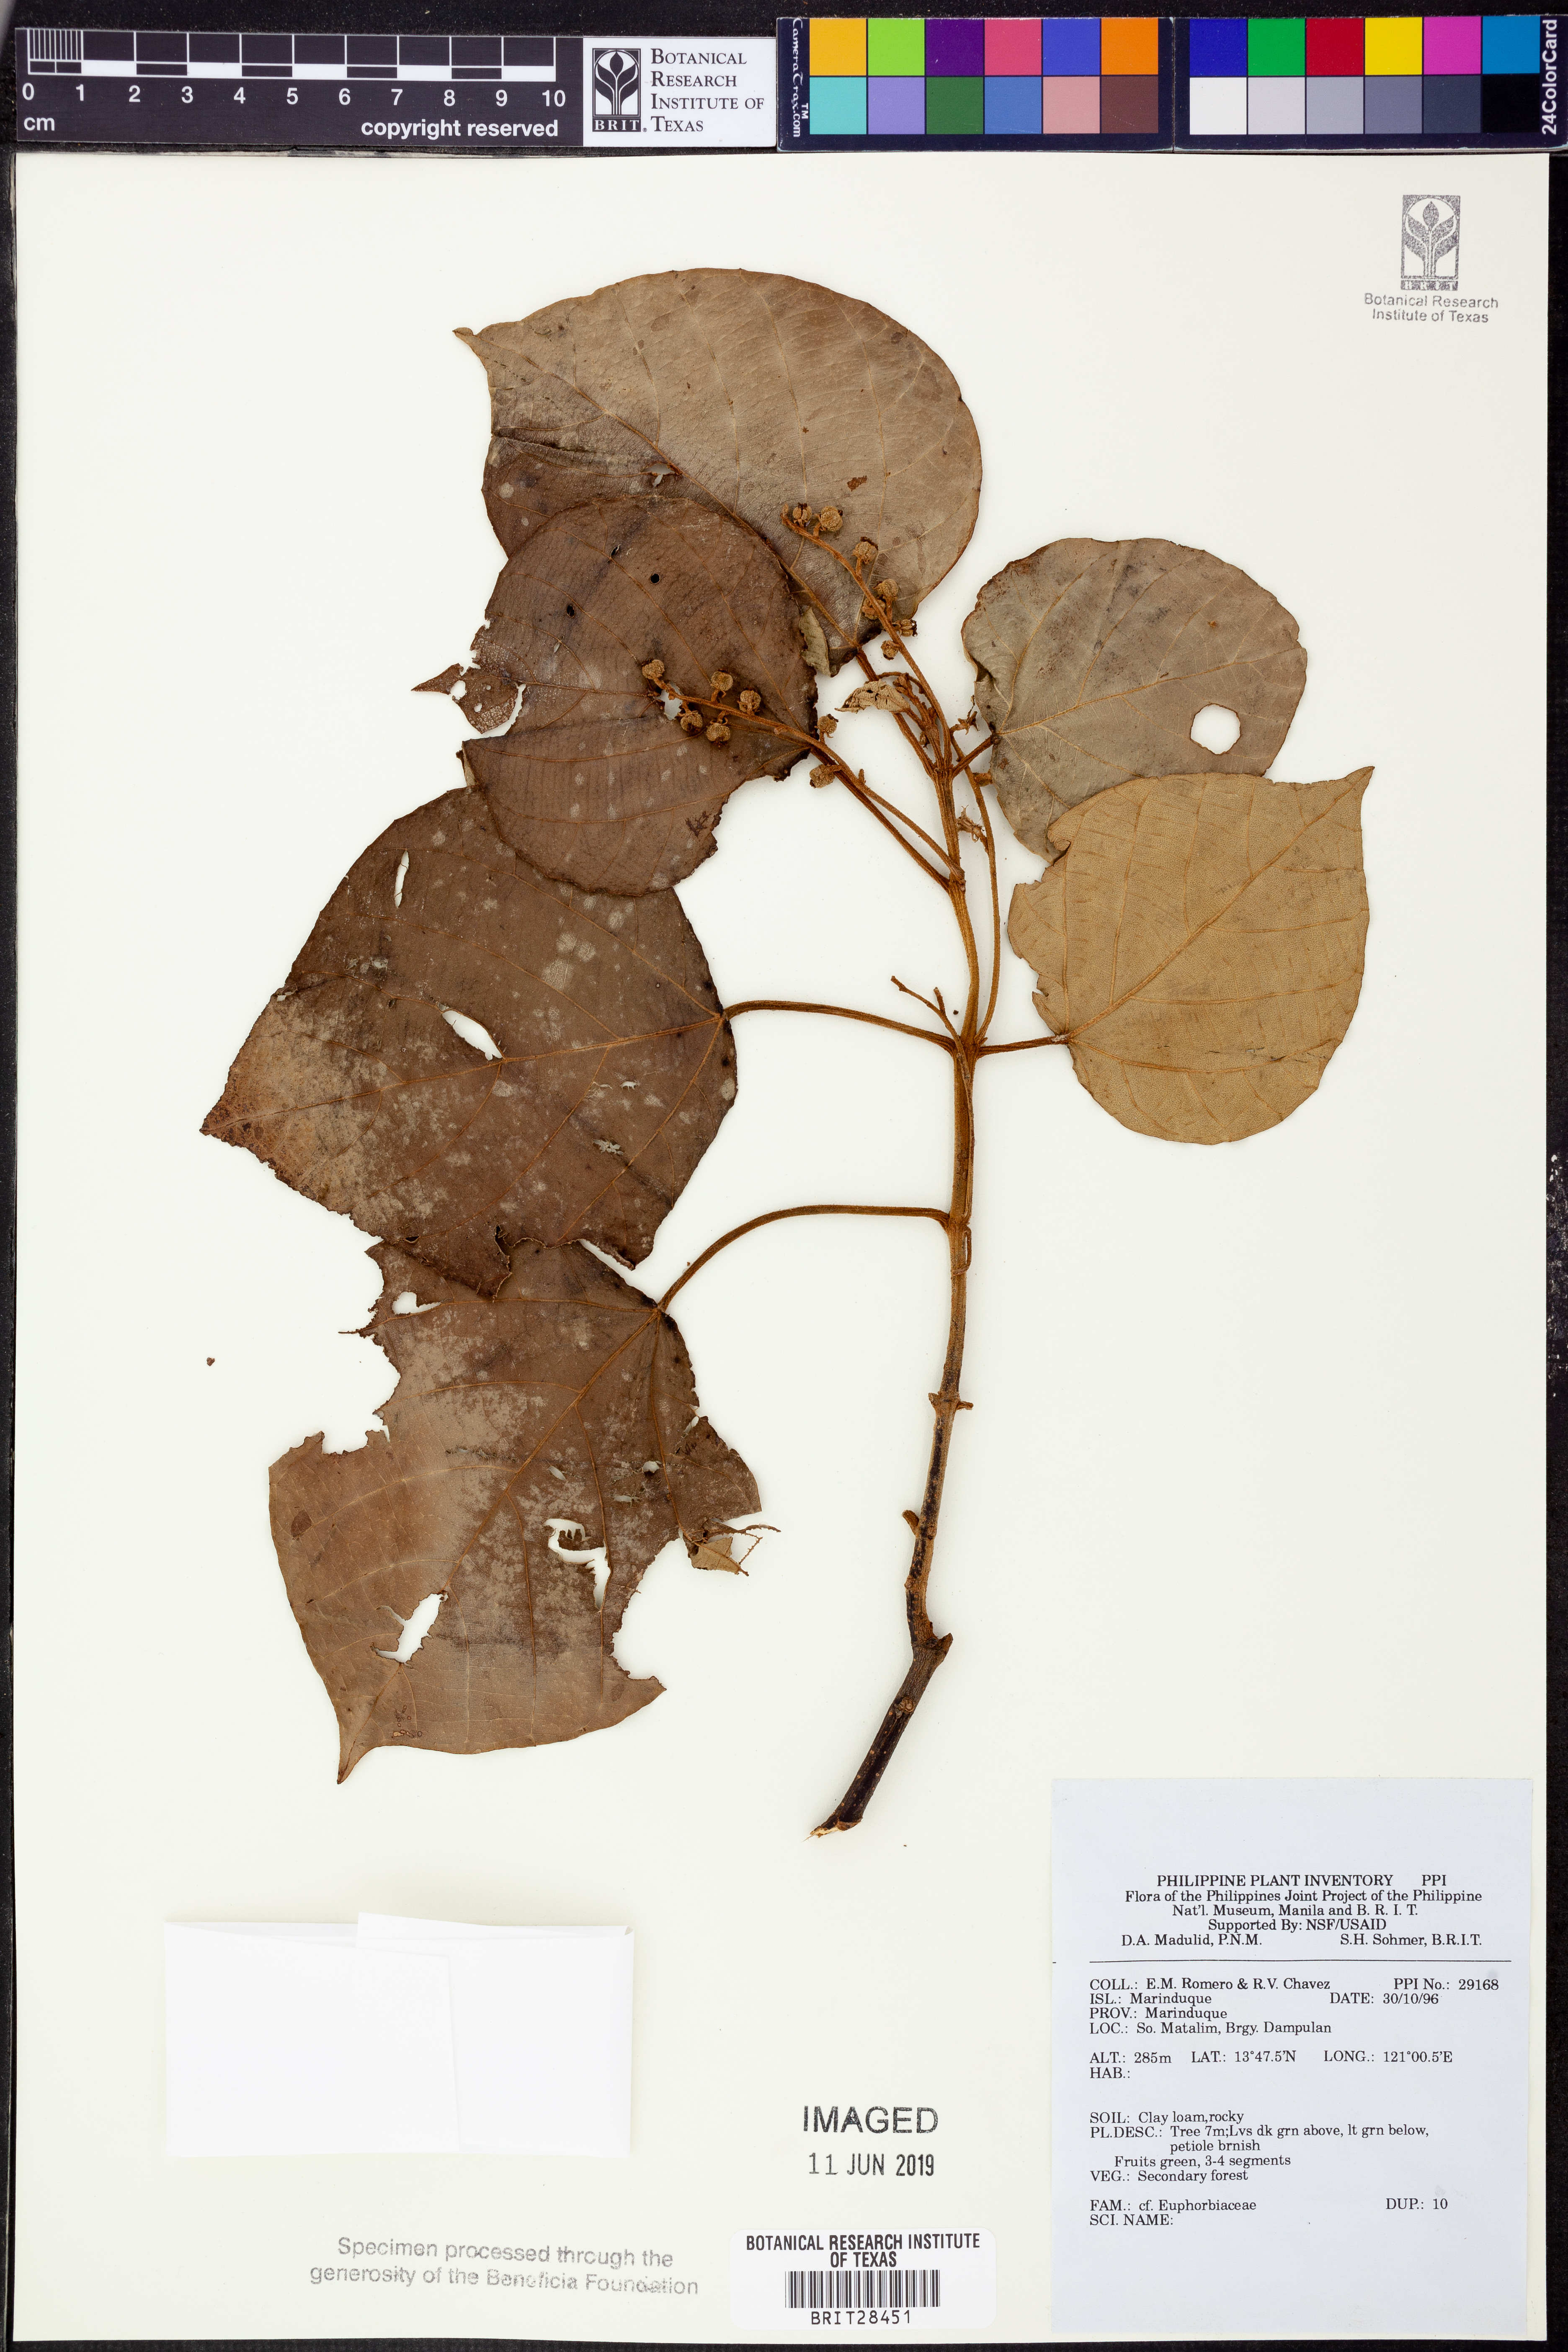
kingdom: Plantae
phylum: Tracheophyta
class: Magnoliopsida
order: Malpighiales
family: Euphorbiaceae
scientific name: Euphorbiaceae
